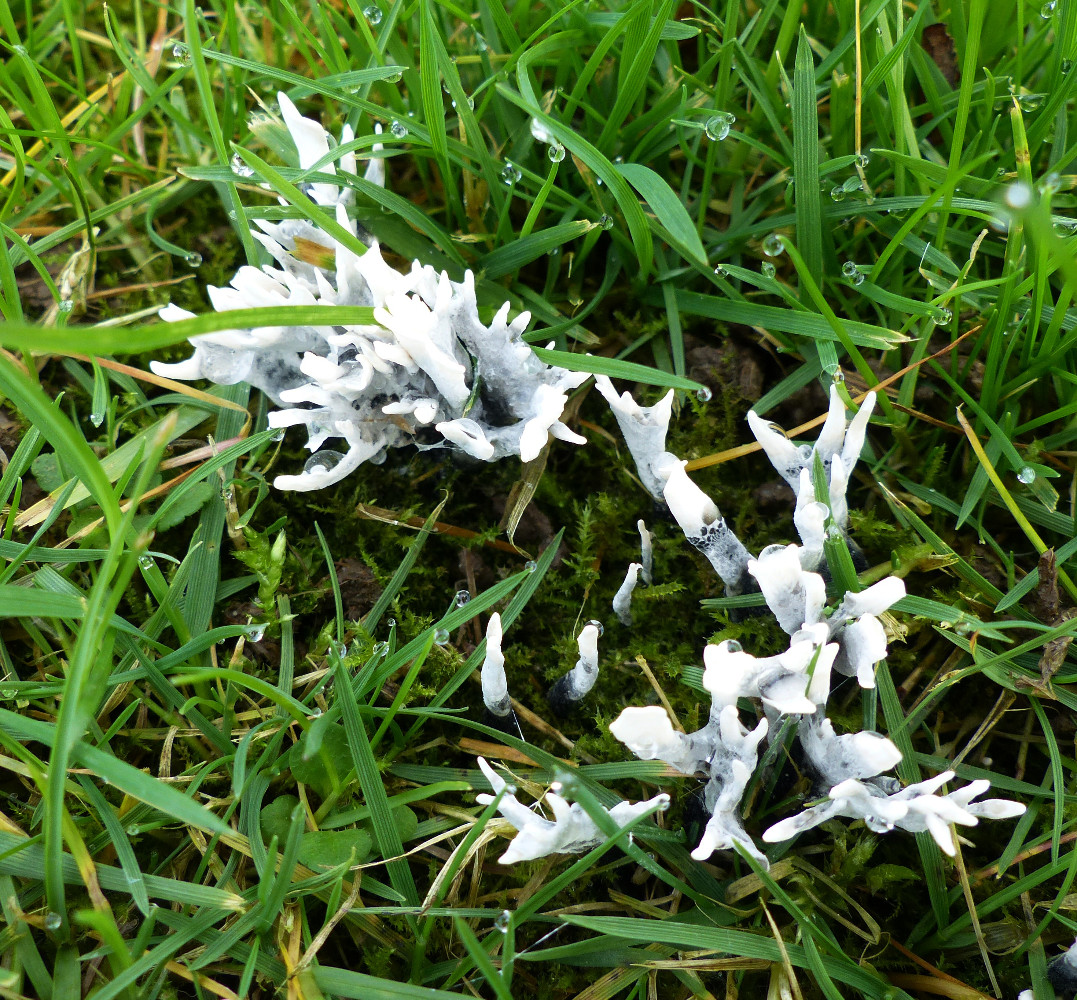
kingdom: Fungi
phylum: Ascomycota
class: Sordariomycetes
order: Xylariales
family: Xylariaceae
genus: Xylaria
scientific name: Xylaria hypoxylon
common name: grenet stødsvamp
